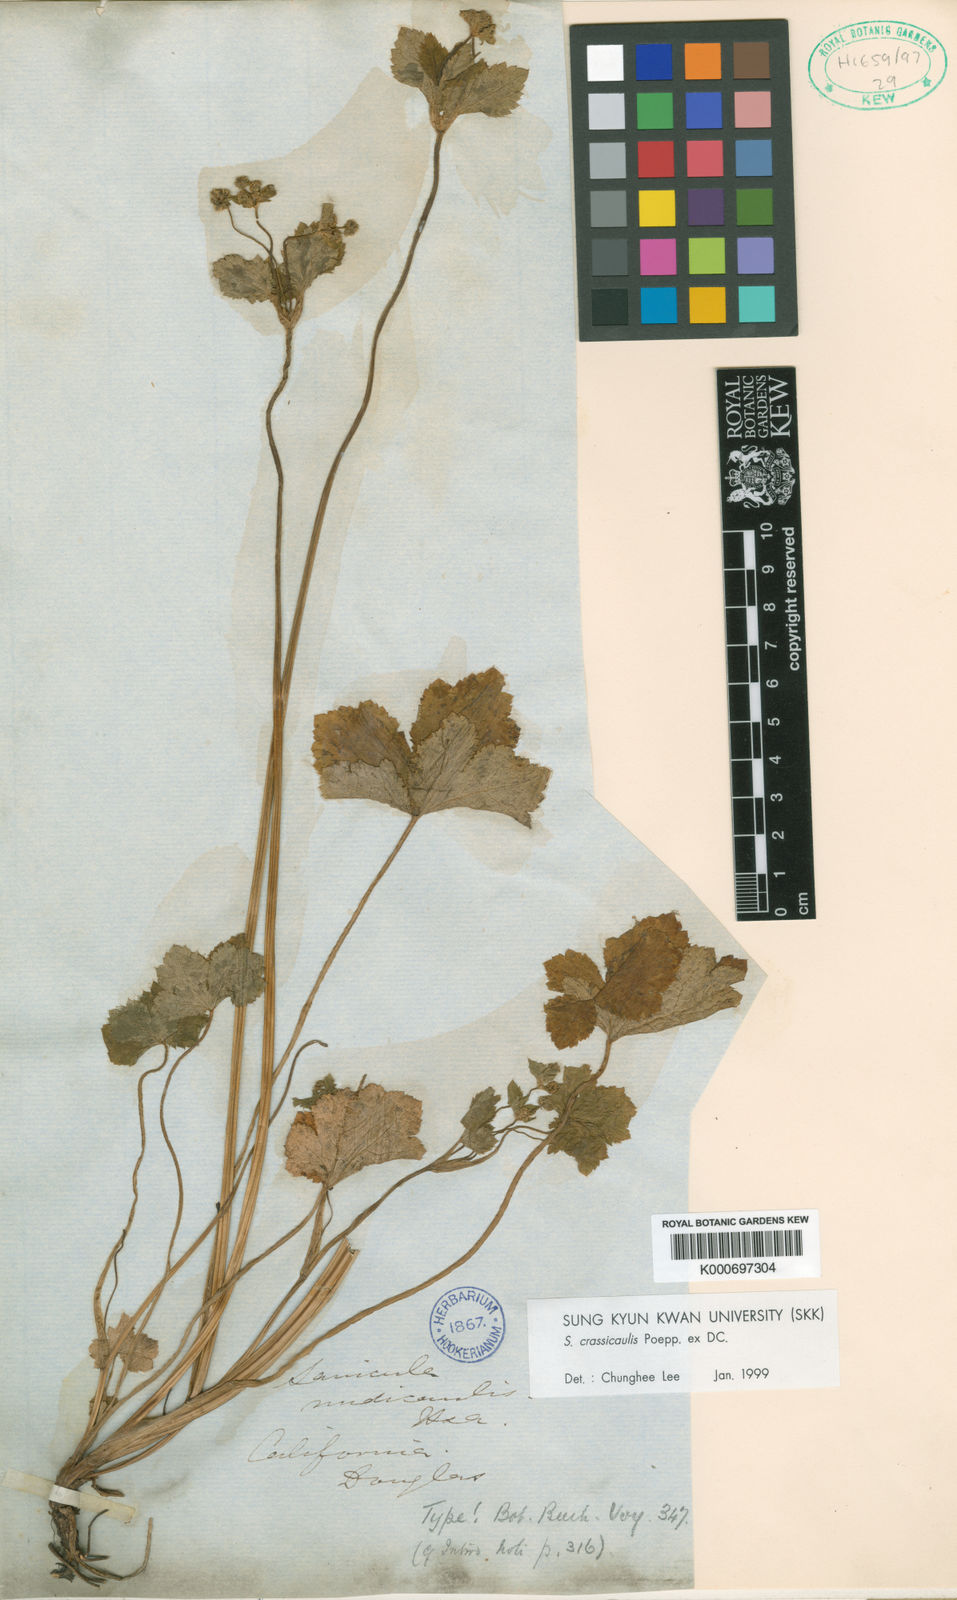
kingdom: Plantae
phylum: Tracheophyta
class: Magnoliopsida
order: Apiales
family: Apiaceae
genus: Sanicula
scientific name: Sanicula crassicaulis
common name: Western snakeroot
